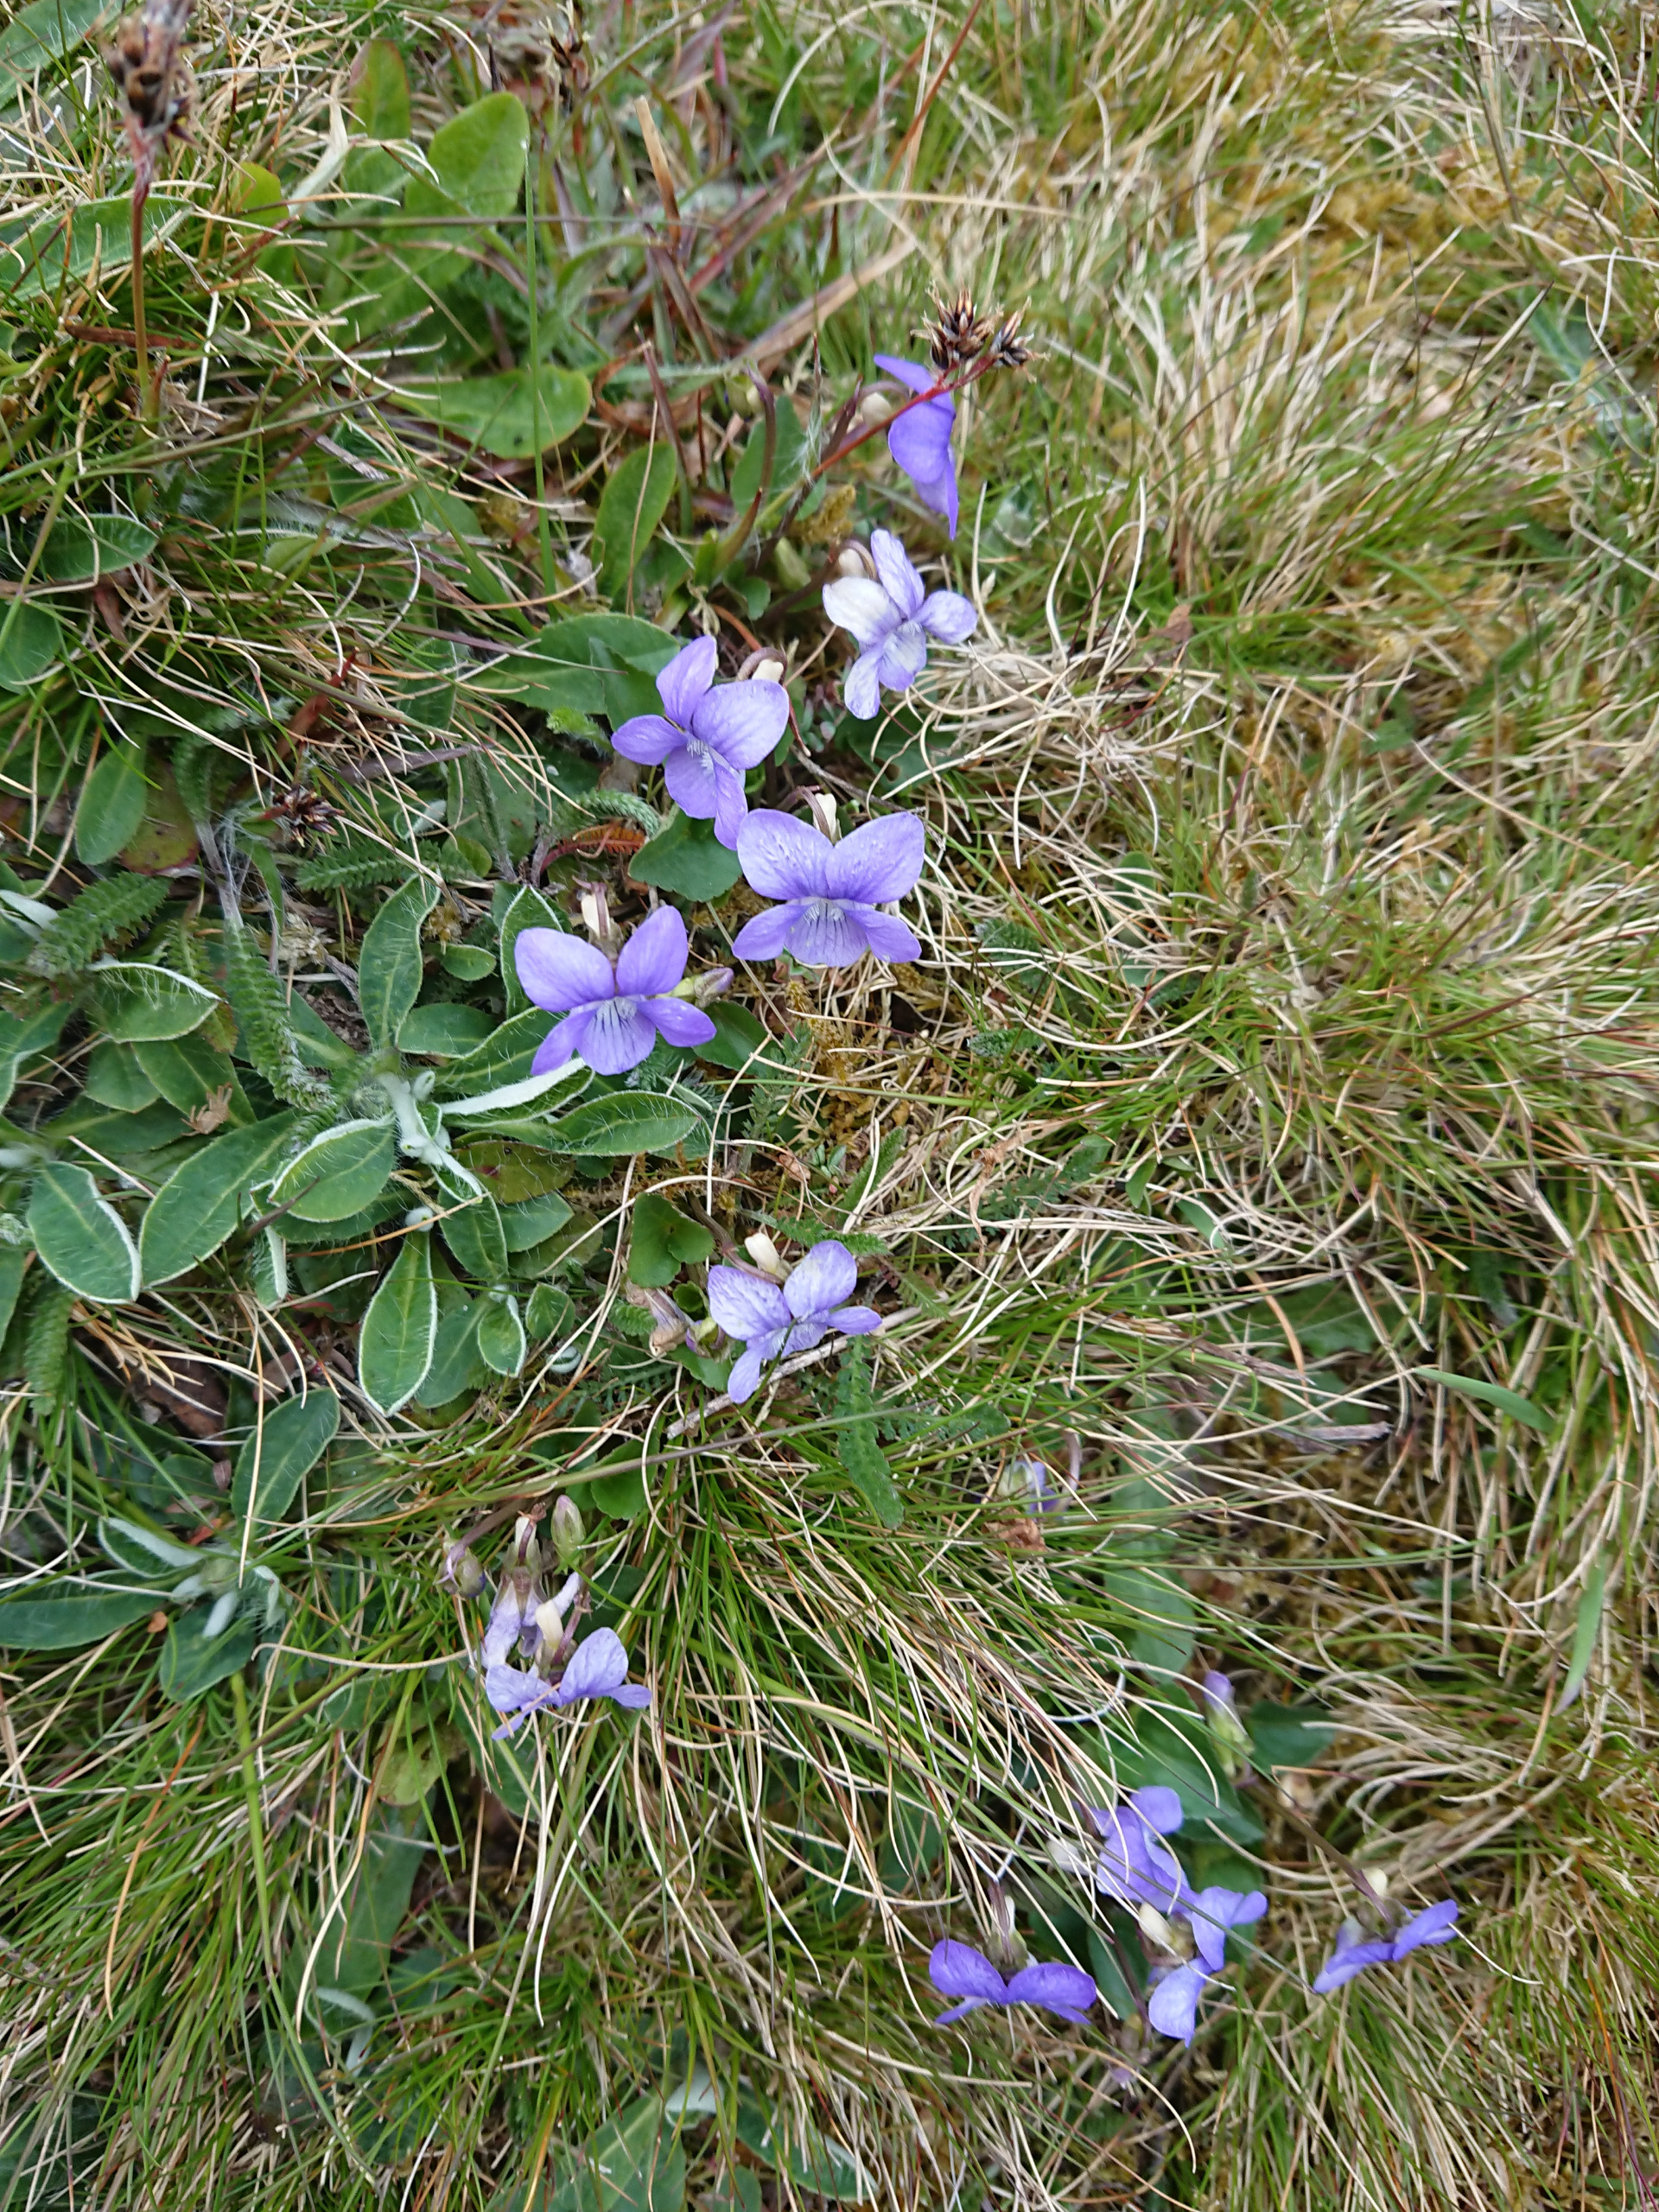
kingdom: Plantae
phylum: Tracheophyta
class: Magnoliopsida
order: Malpighiales
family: Violaceae
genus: Viola
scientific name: Viola
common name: Violslægten
